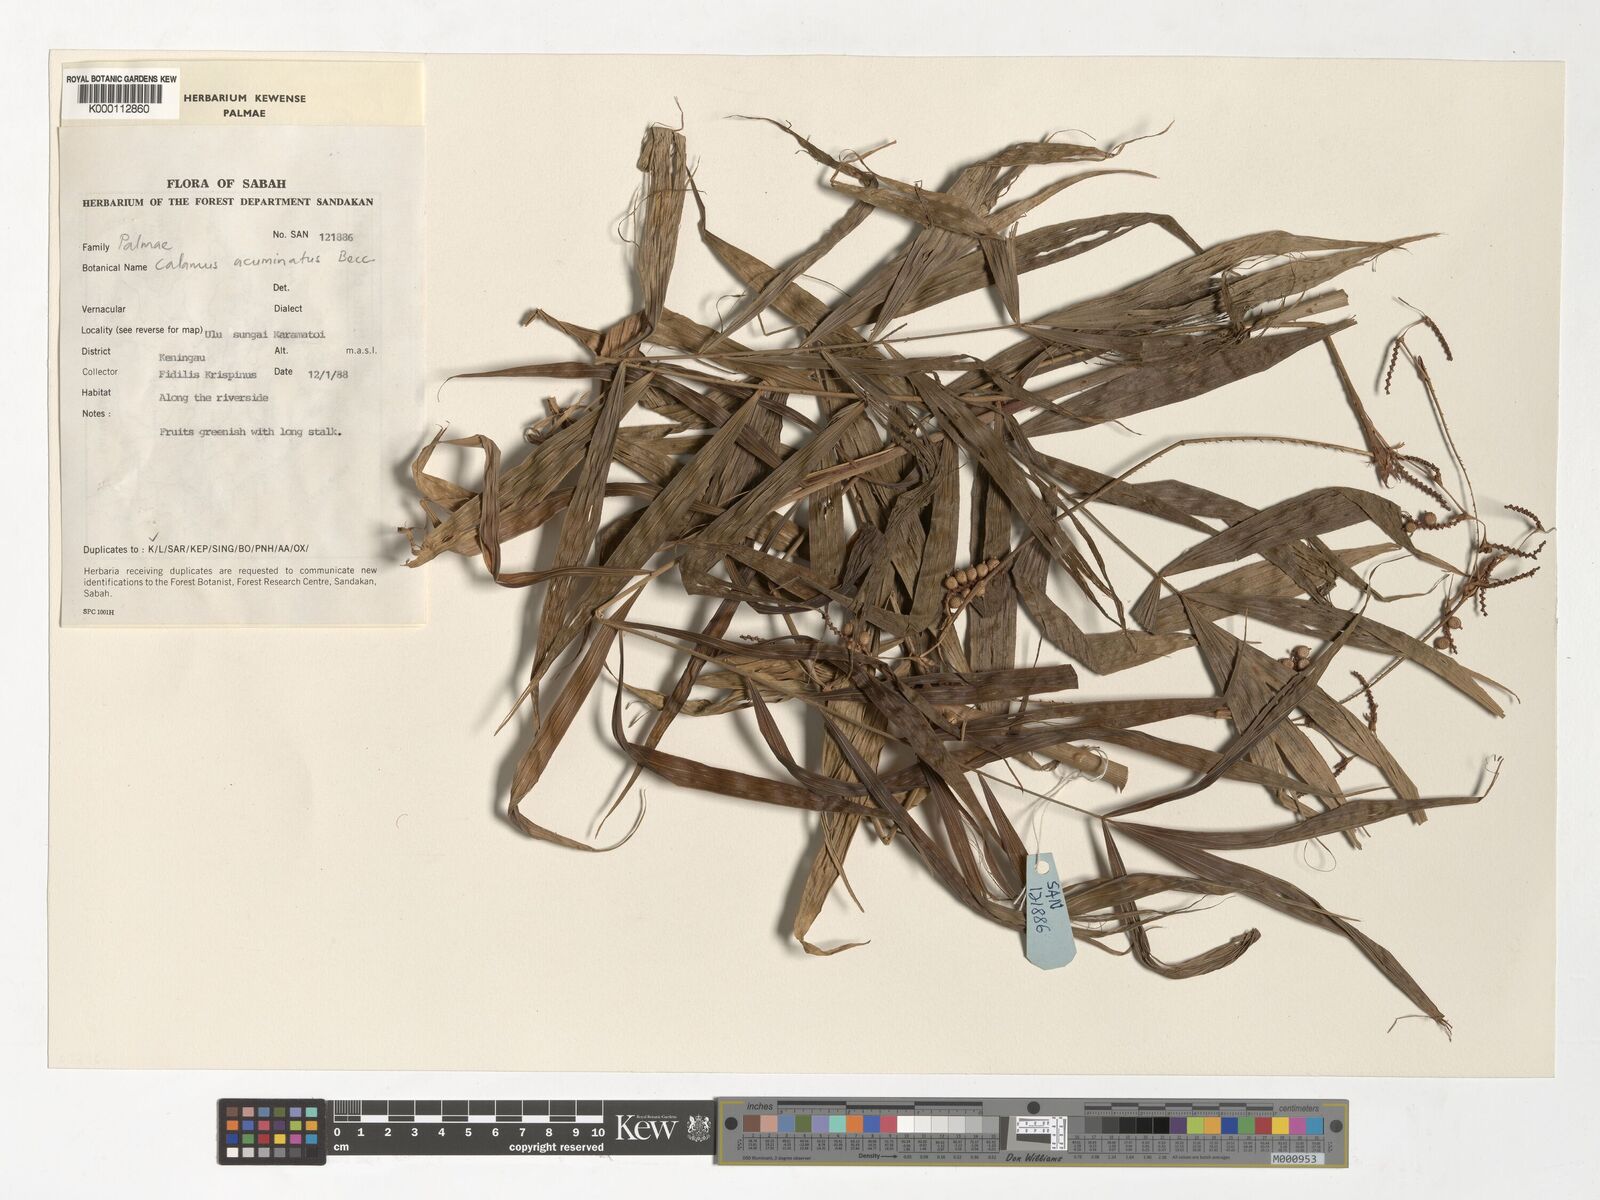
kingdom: Plantae
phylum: Tracheophyta
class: Liliopsida
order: Arecales
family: Arecaceae
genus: Calamus
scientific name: Calamus javensis
